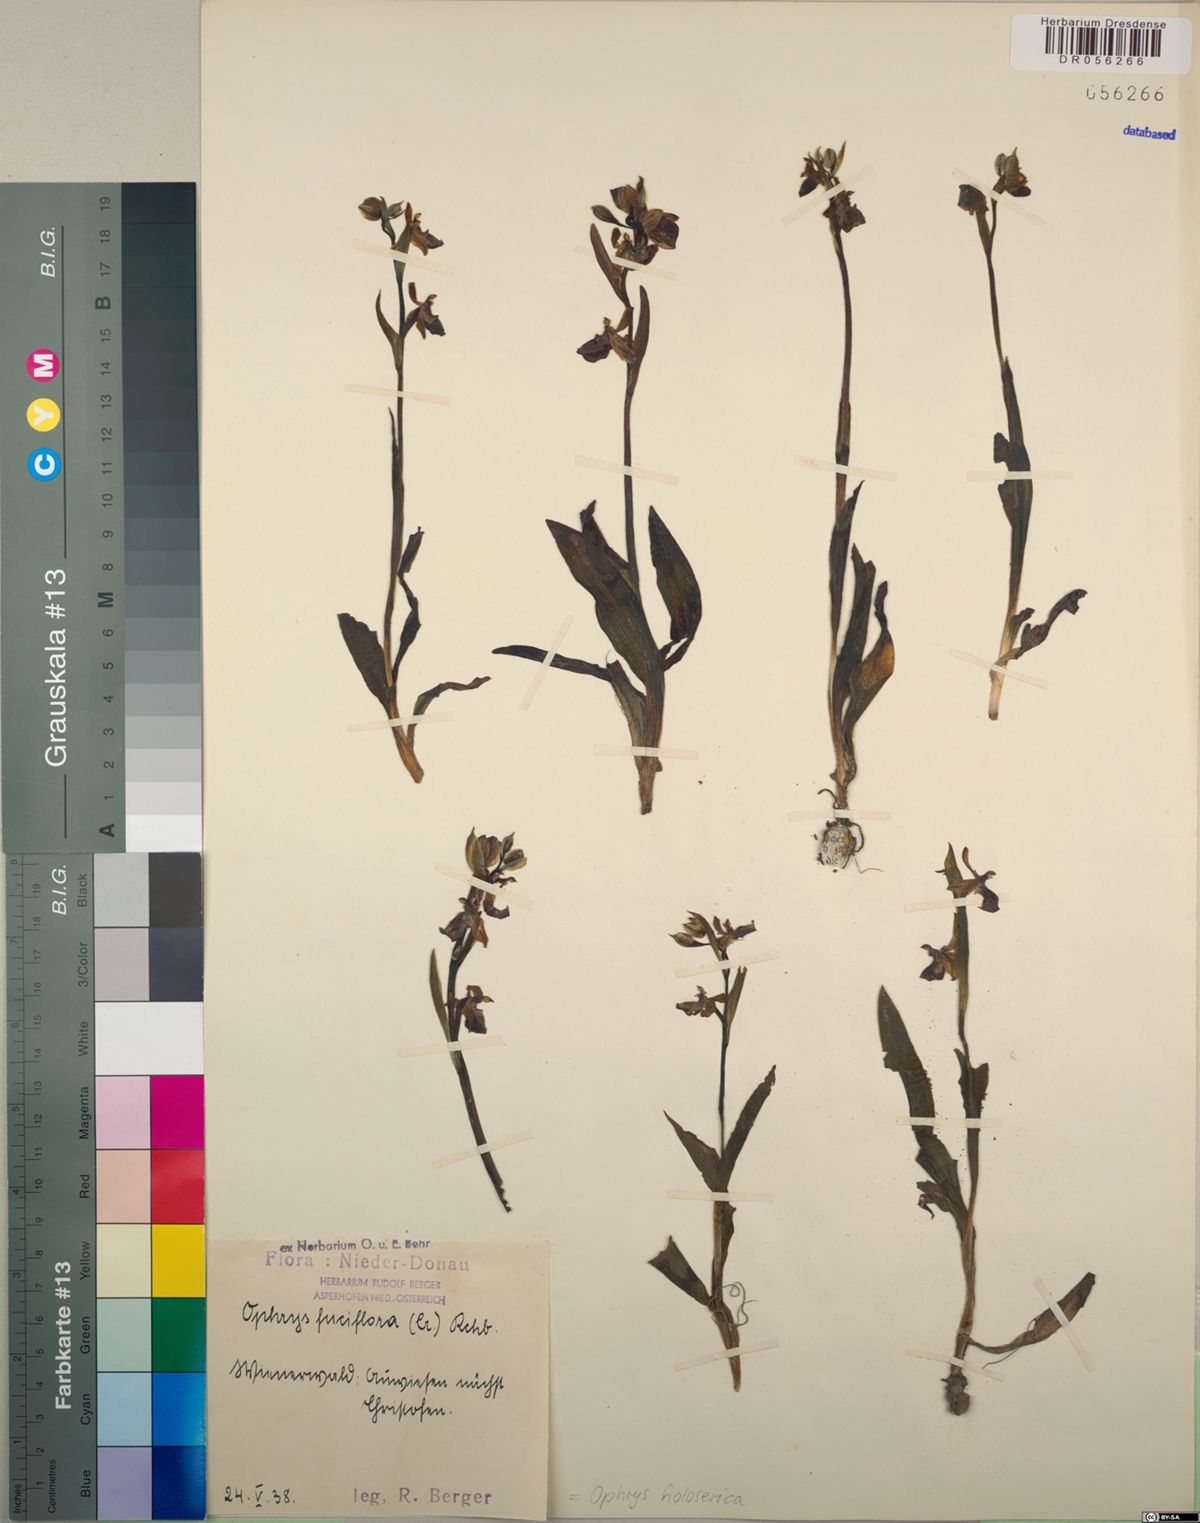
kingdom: Plantae
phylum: Tracheophyta
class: Liliopsida
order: Asparagales
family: Orchidaceae
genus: Ophrys
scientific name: Ophrys holosericea
